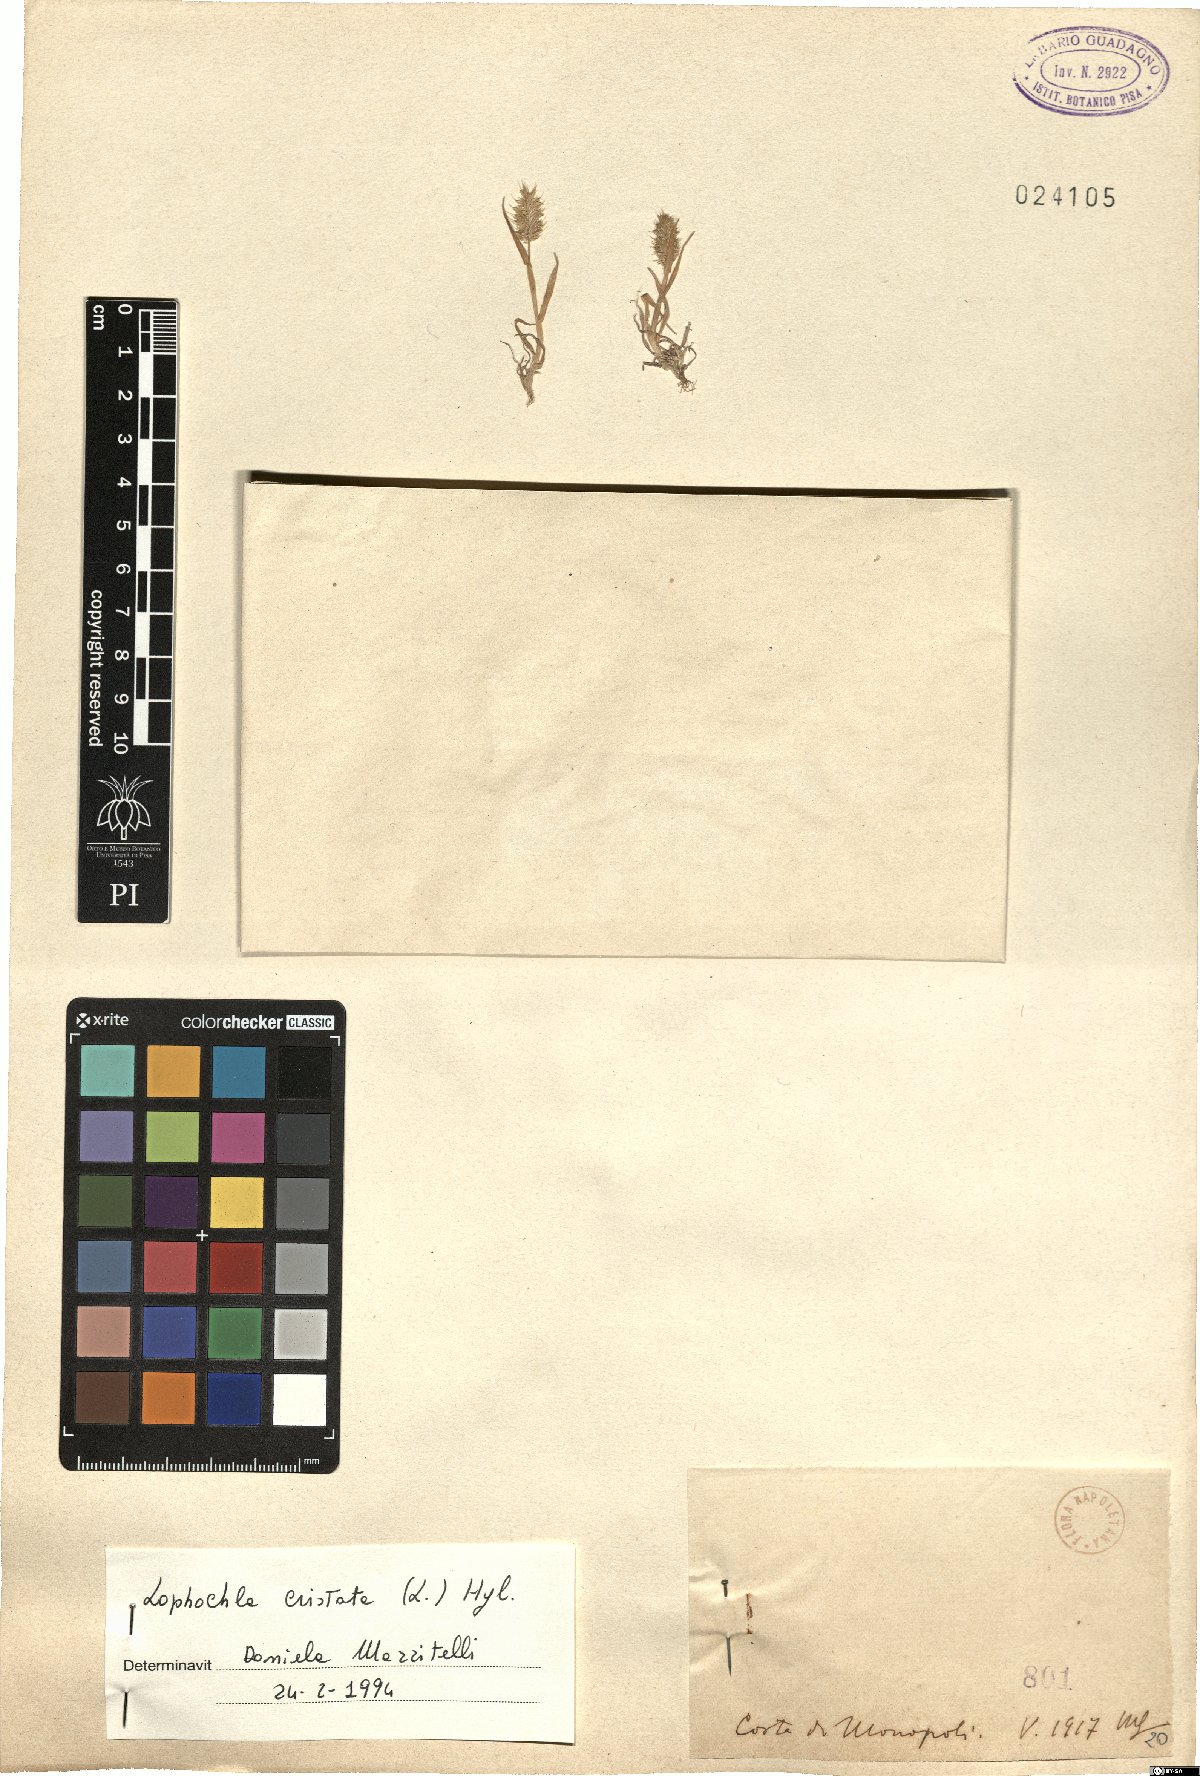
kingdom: Plantae
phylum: Tracheophyta
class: Liliopsida
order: Poales
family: Poaceae
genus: Rostraria
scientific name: Rostraria cristata
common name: Mediterranean hair-grass
